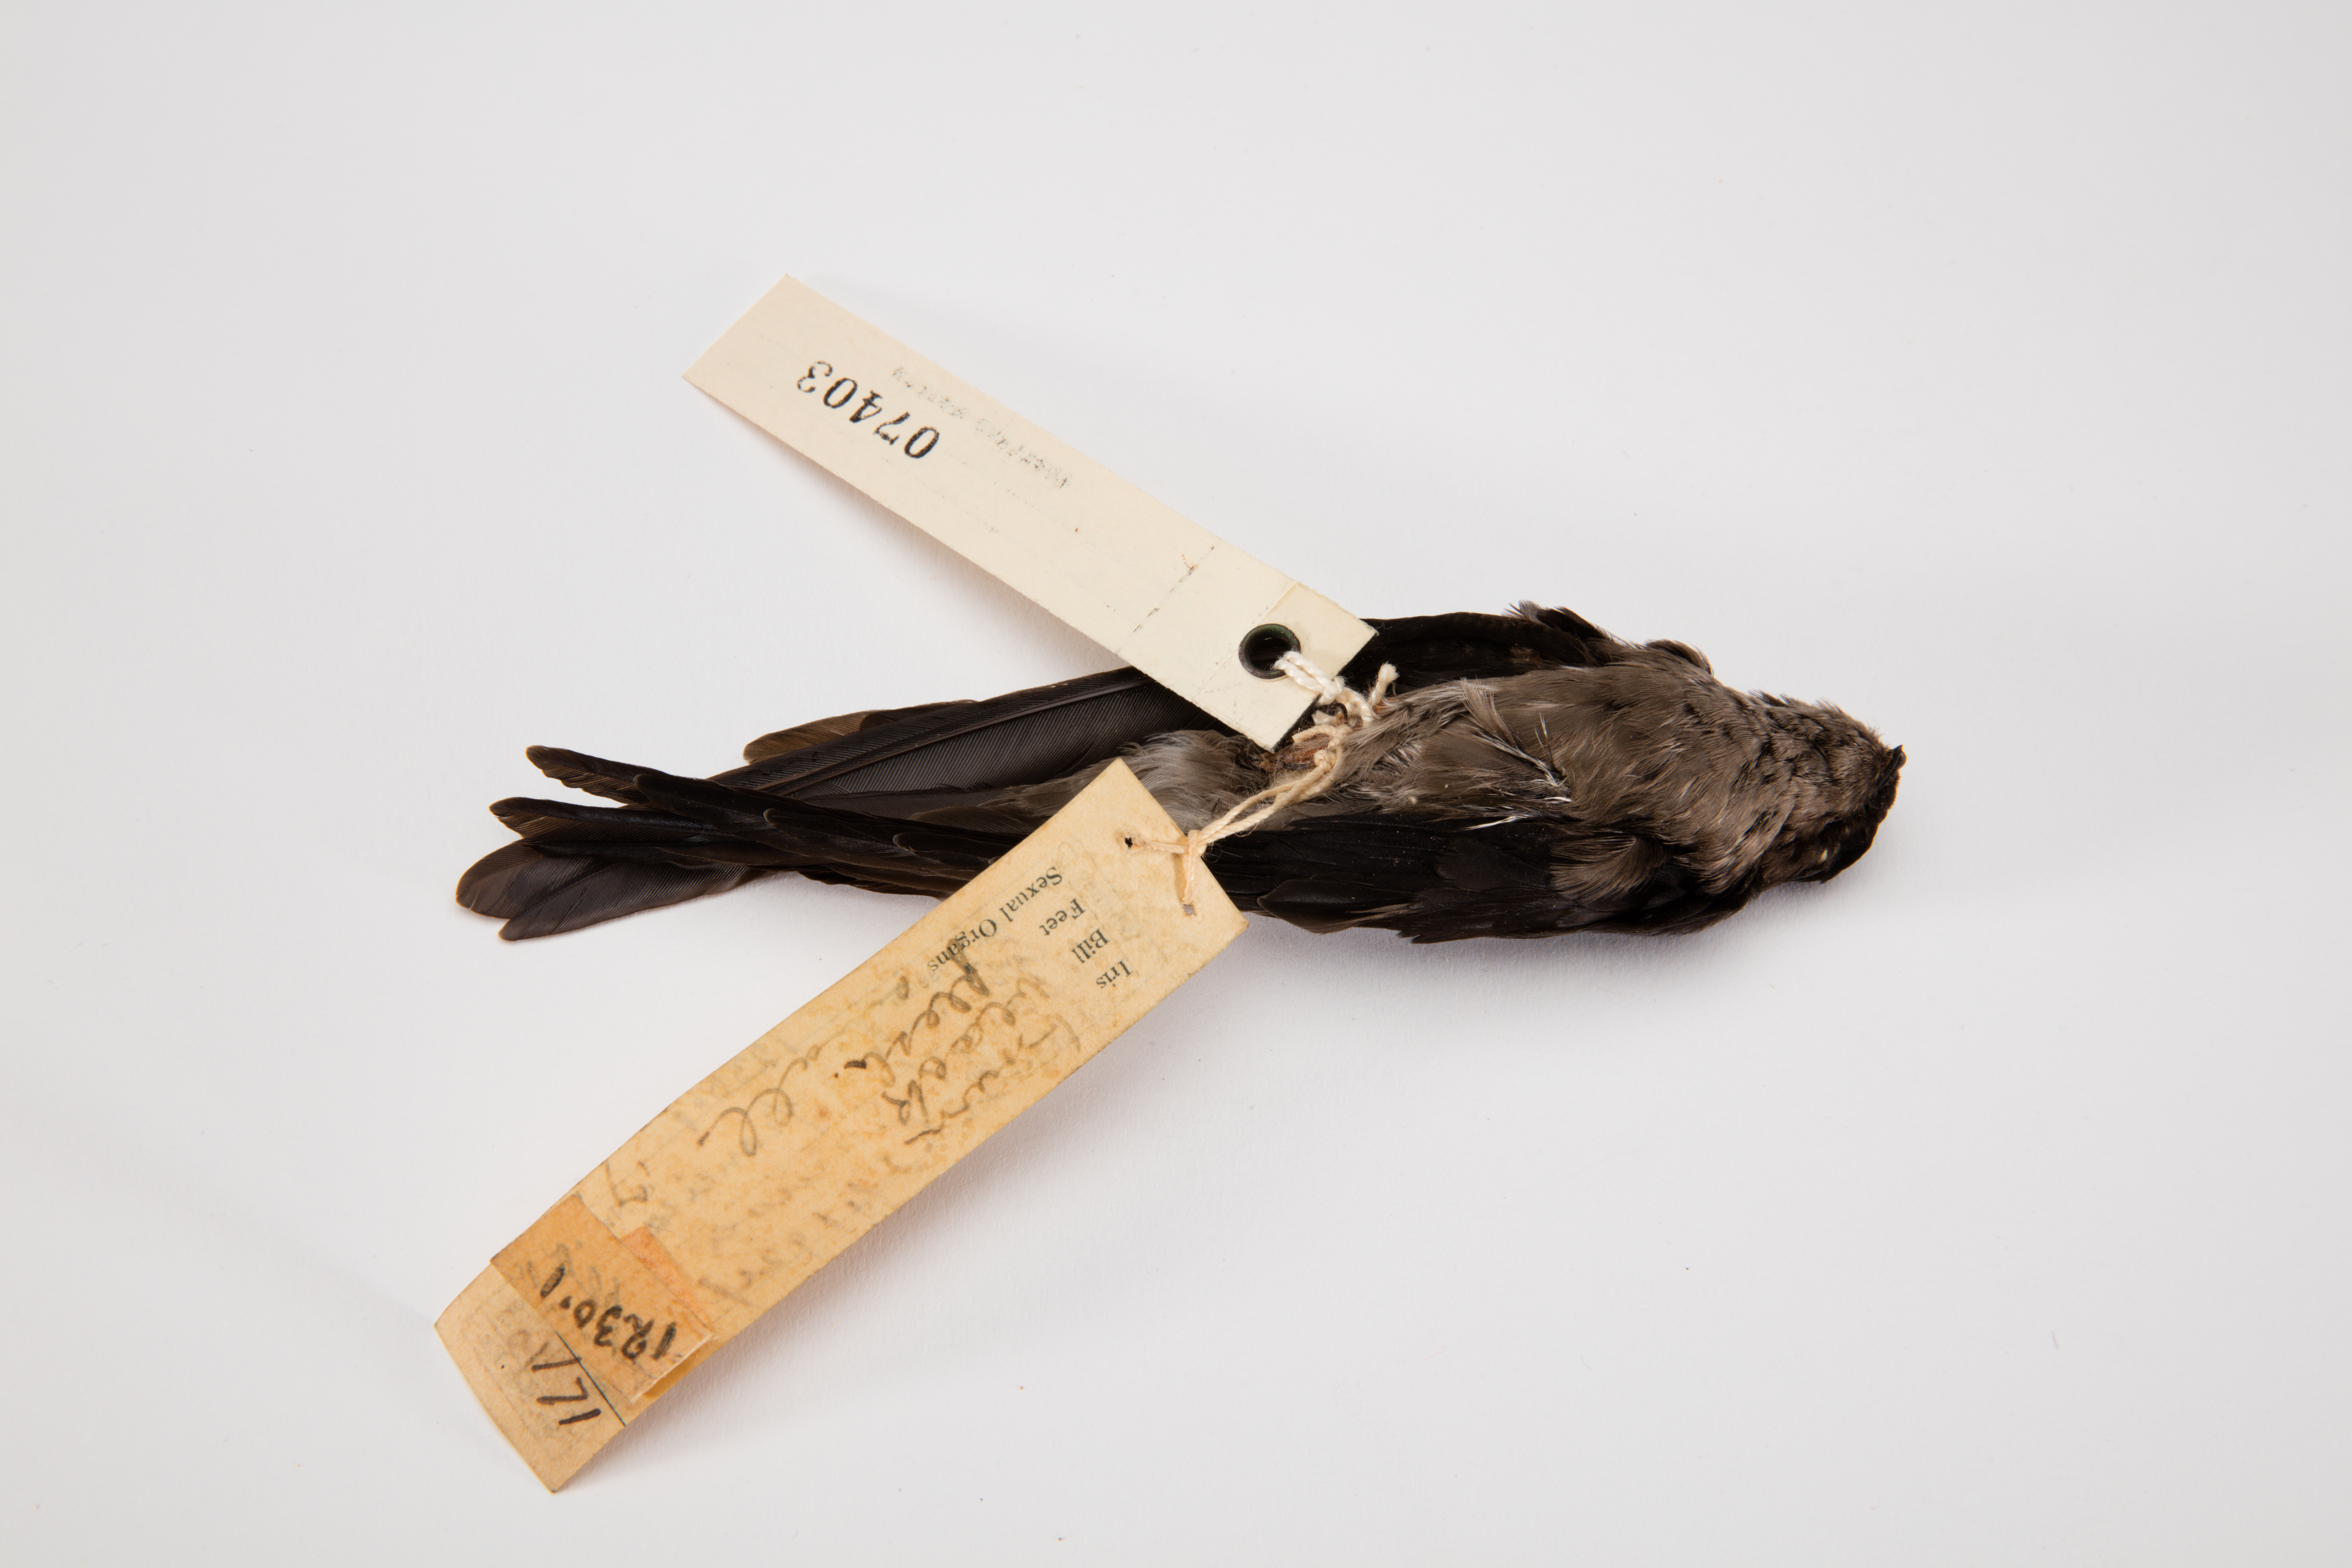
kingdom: Animalia
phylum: Chordata
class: Aves
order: Apodiformes
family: Apodidae
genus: Aerodramus
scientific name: Aerodramus spodiopygius
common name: White-rumped swiftlet
